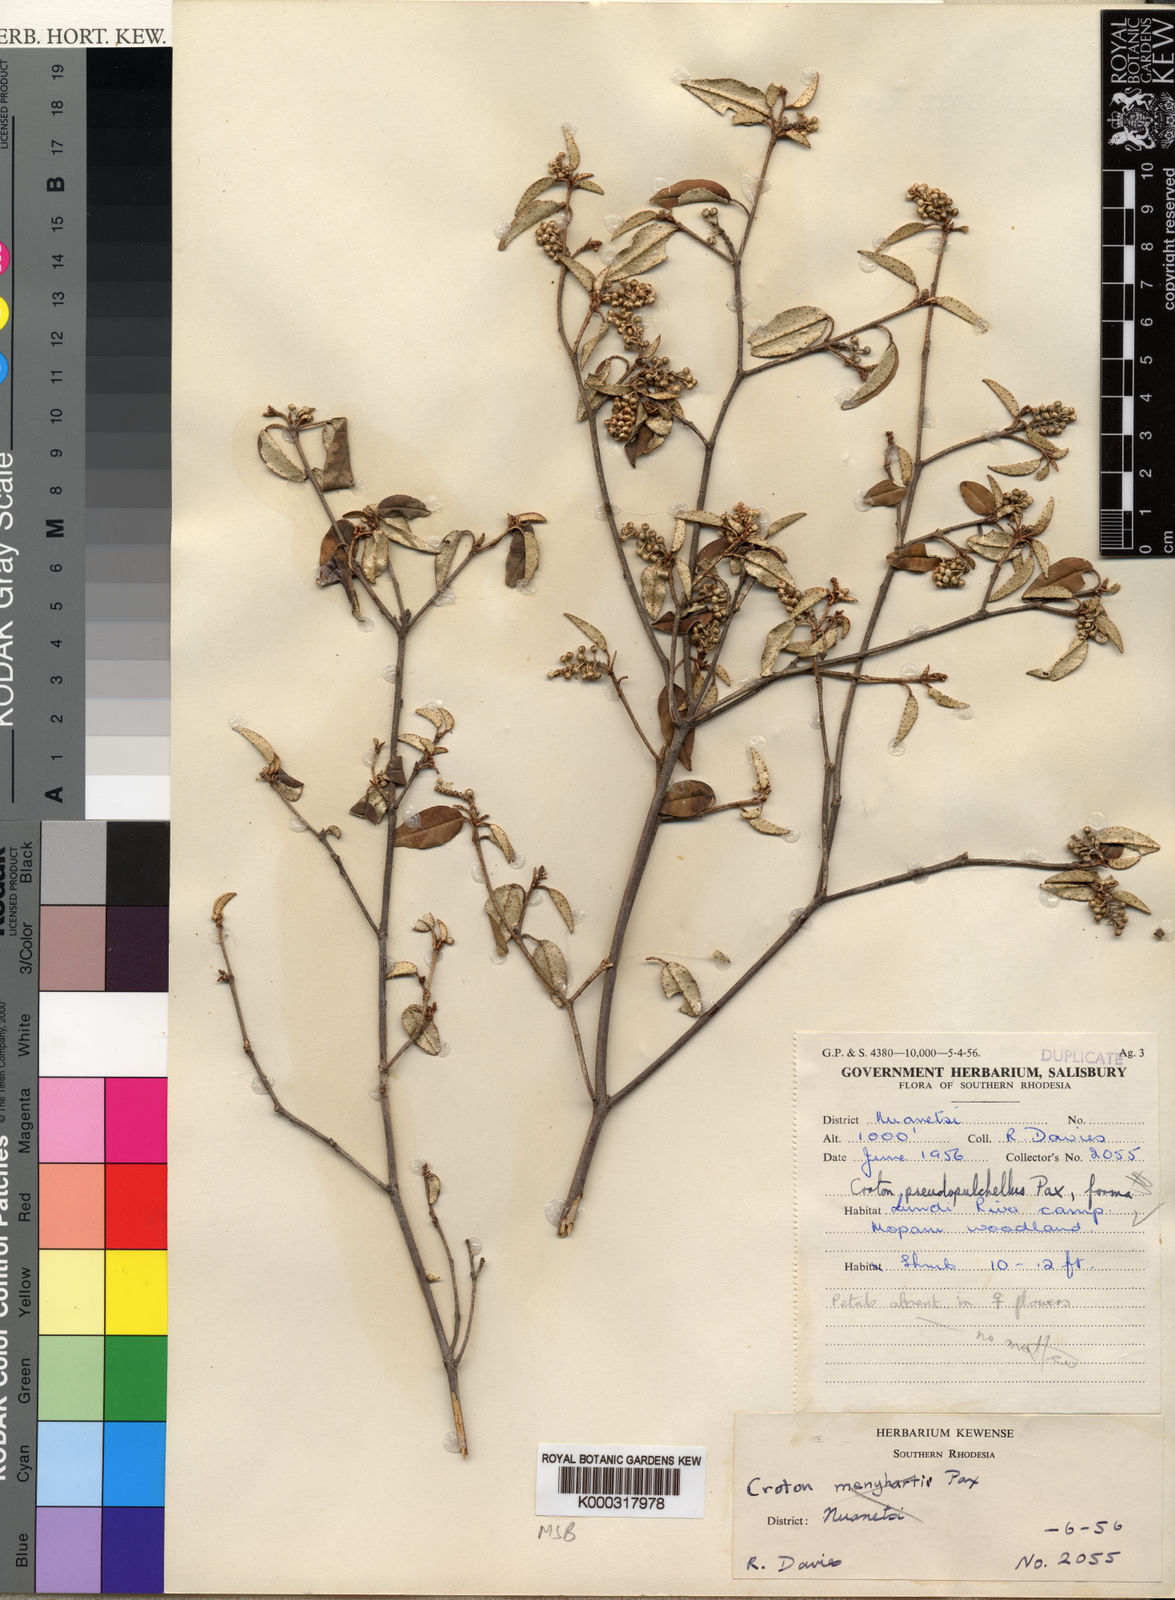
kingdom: Plantae
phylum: Tracheophyta
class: Magnoliopsida
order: Malpighiales
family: Euphorbiaceae
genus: Croton
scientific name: Croton pseudopulchellus
